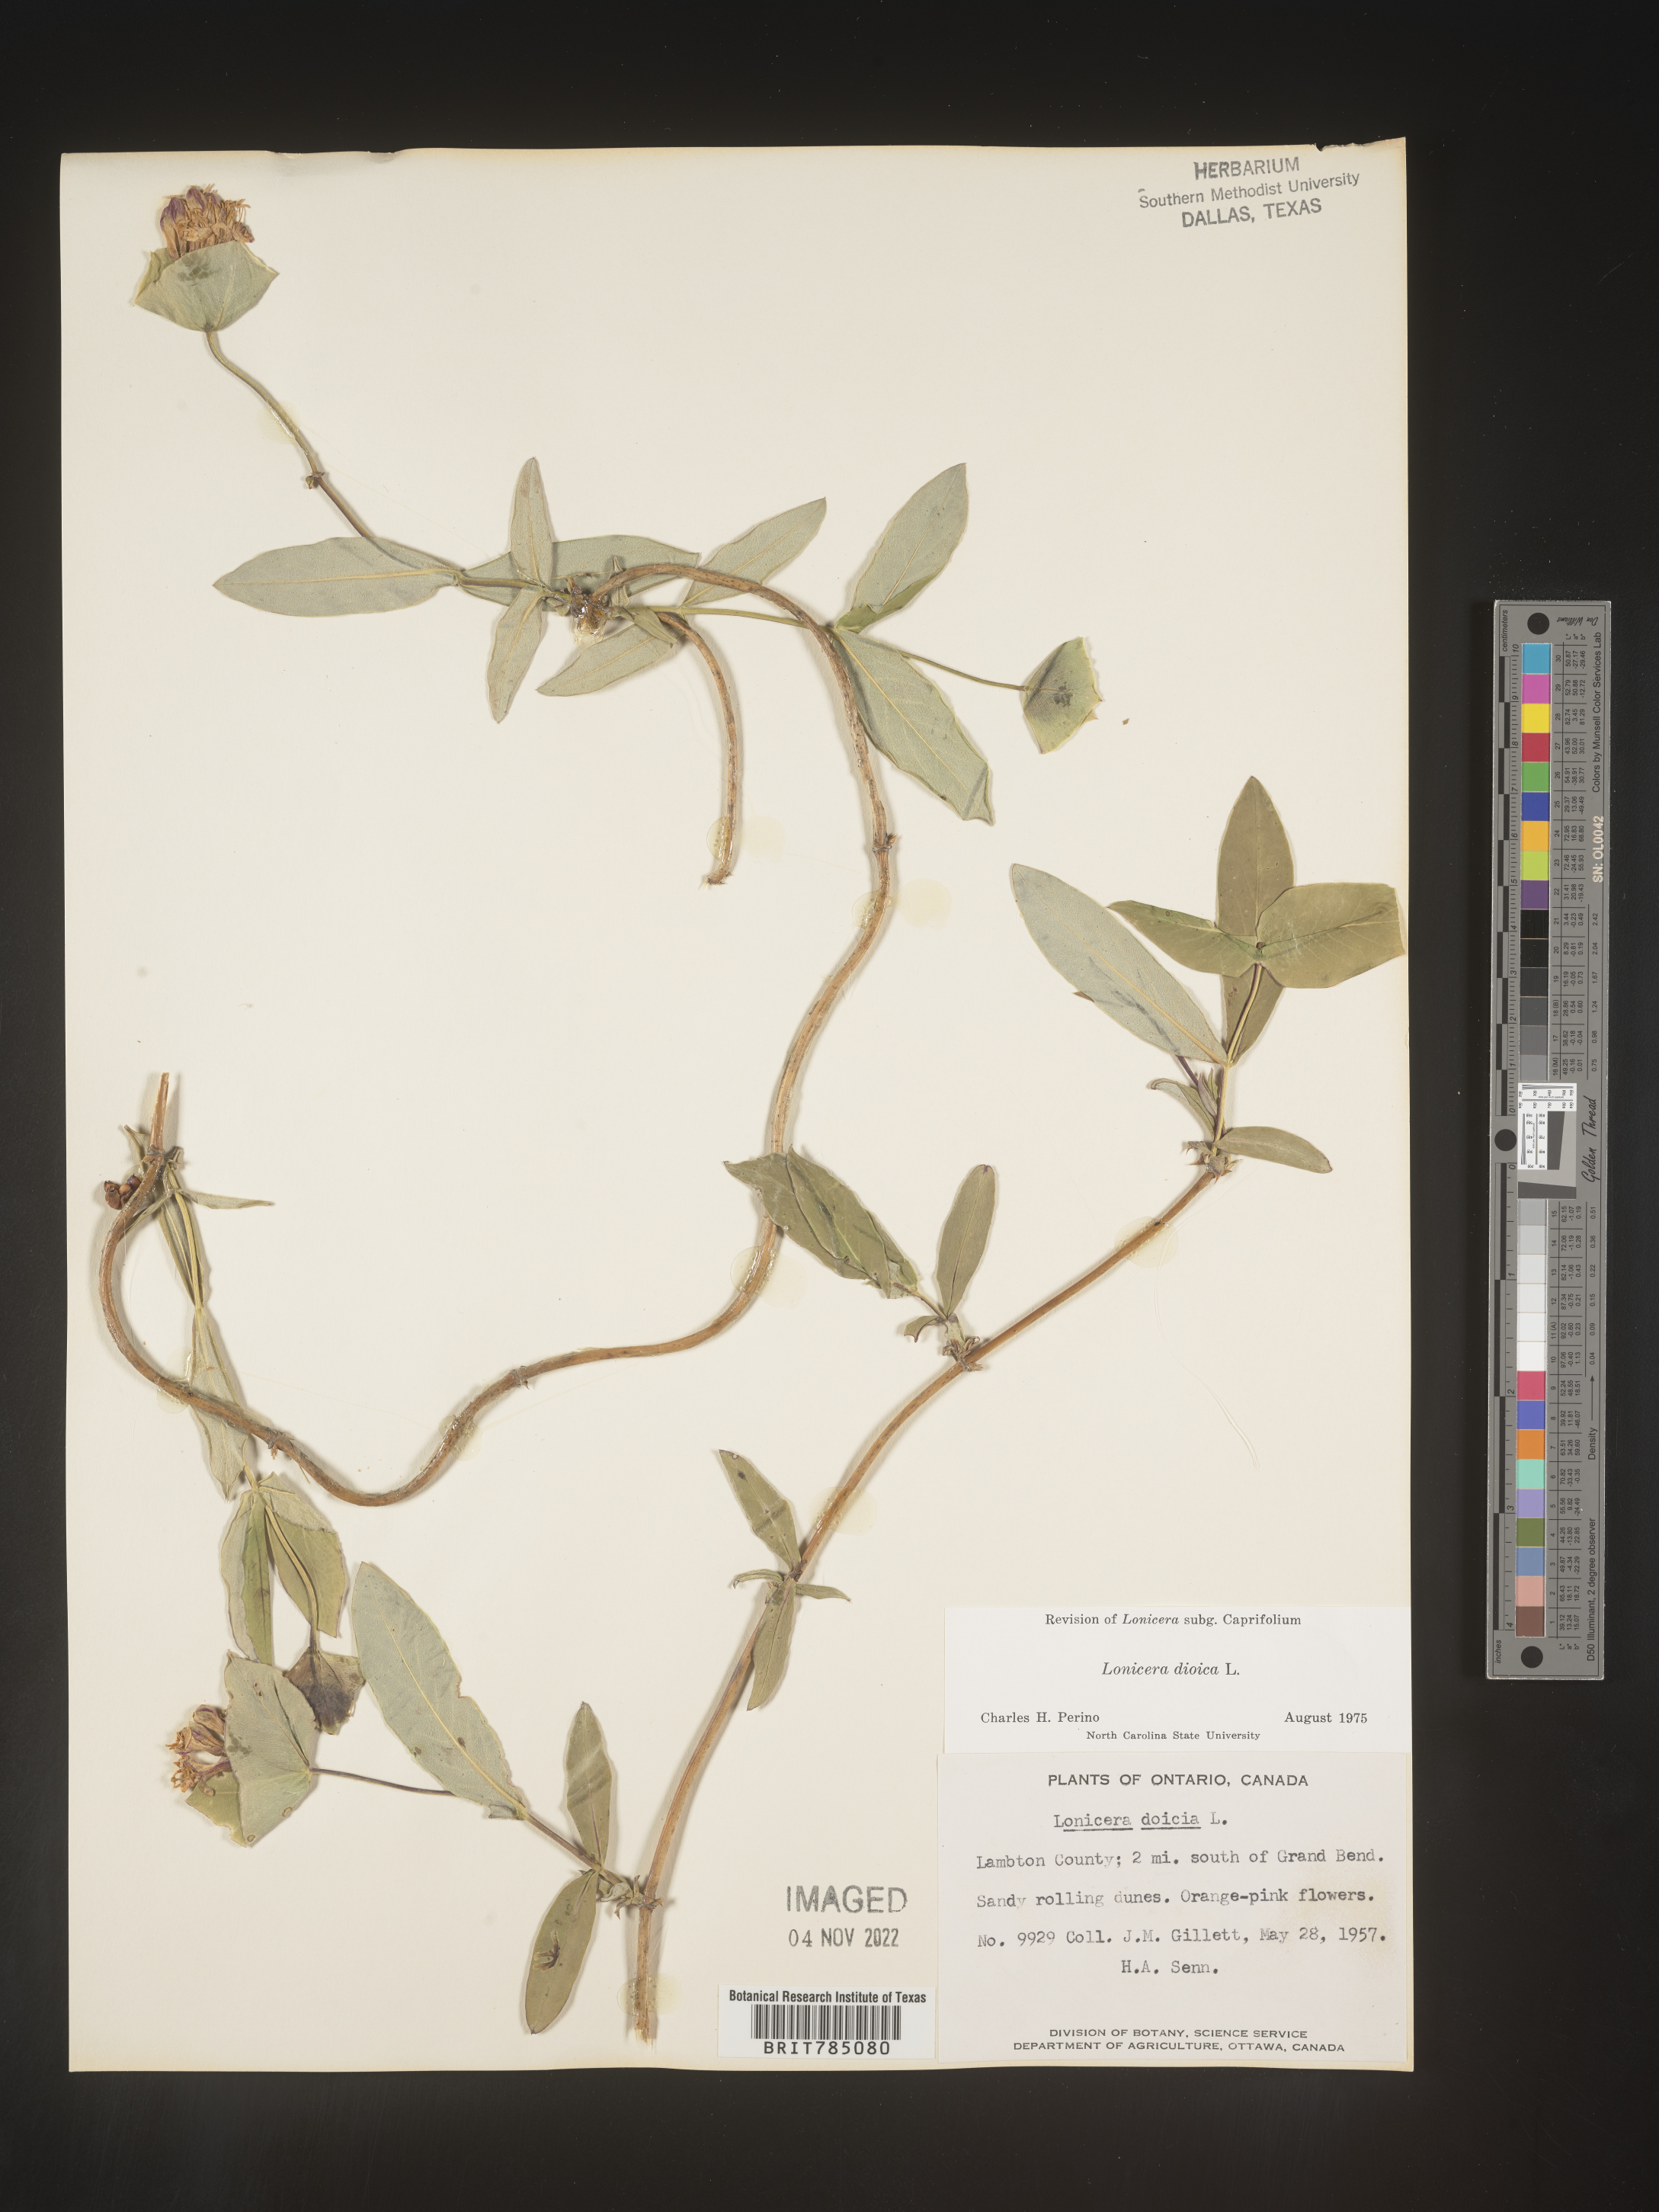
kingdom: Plantae
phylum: Tracheophyta
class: Magnoliopsida
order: Dipsacales
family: Caprifoliaceae
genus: Lonicera
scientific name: Lonicera dioica
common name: Limber honeysuckle
